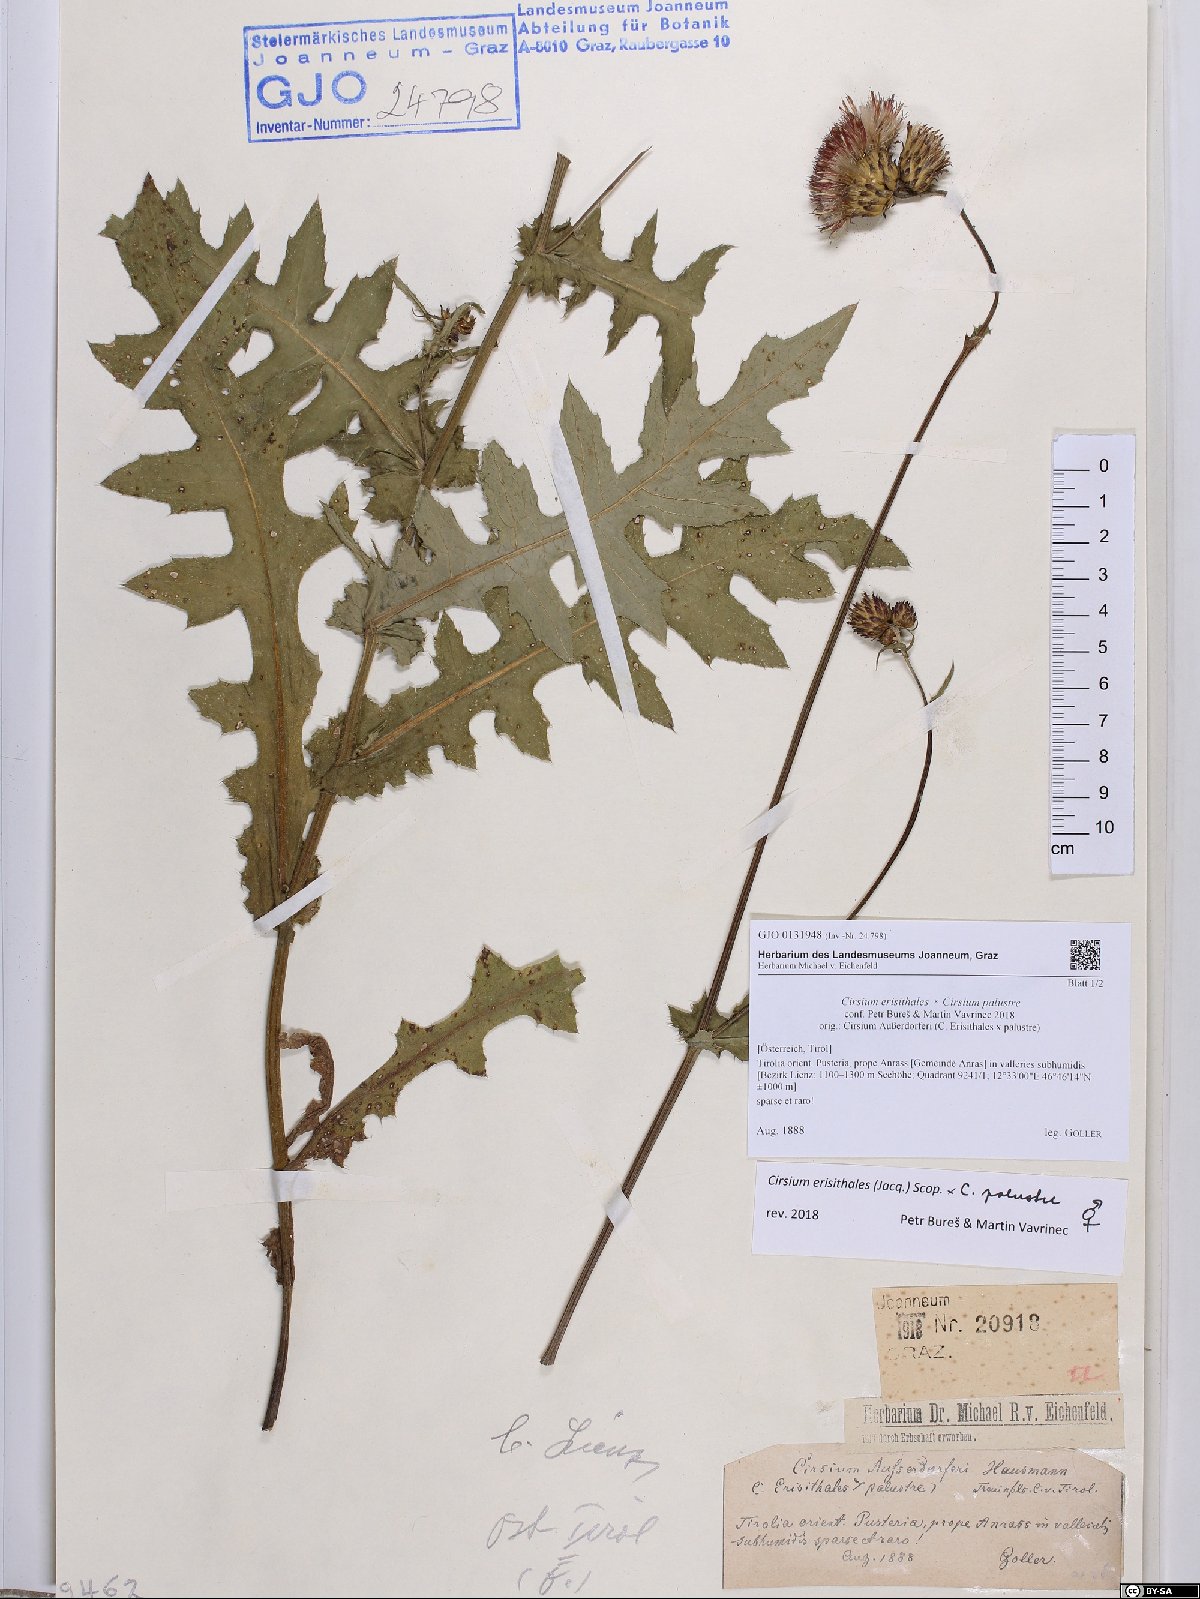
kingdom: Plantae
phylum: Tracheophyta
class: Magnoliopsida
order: Asterales
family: Asteraceae
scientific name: Asteraceae
